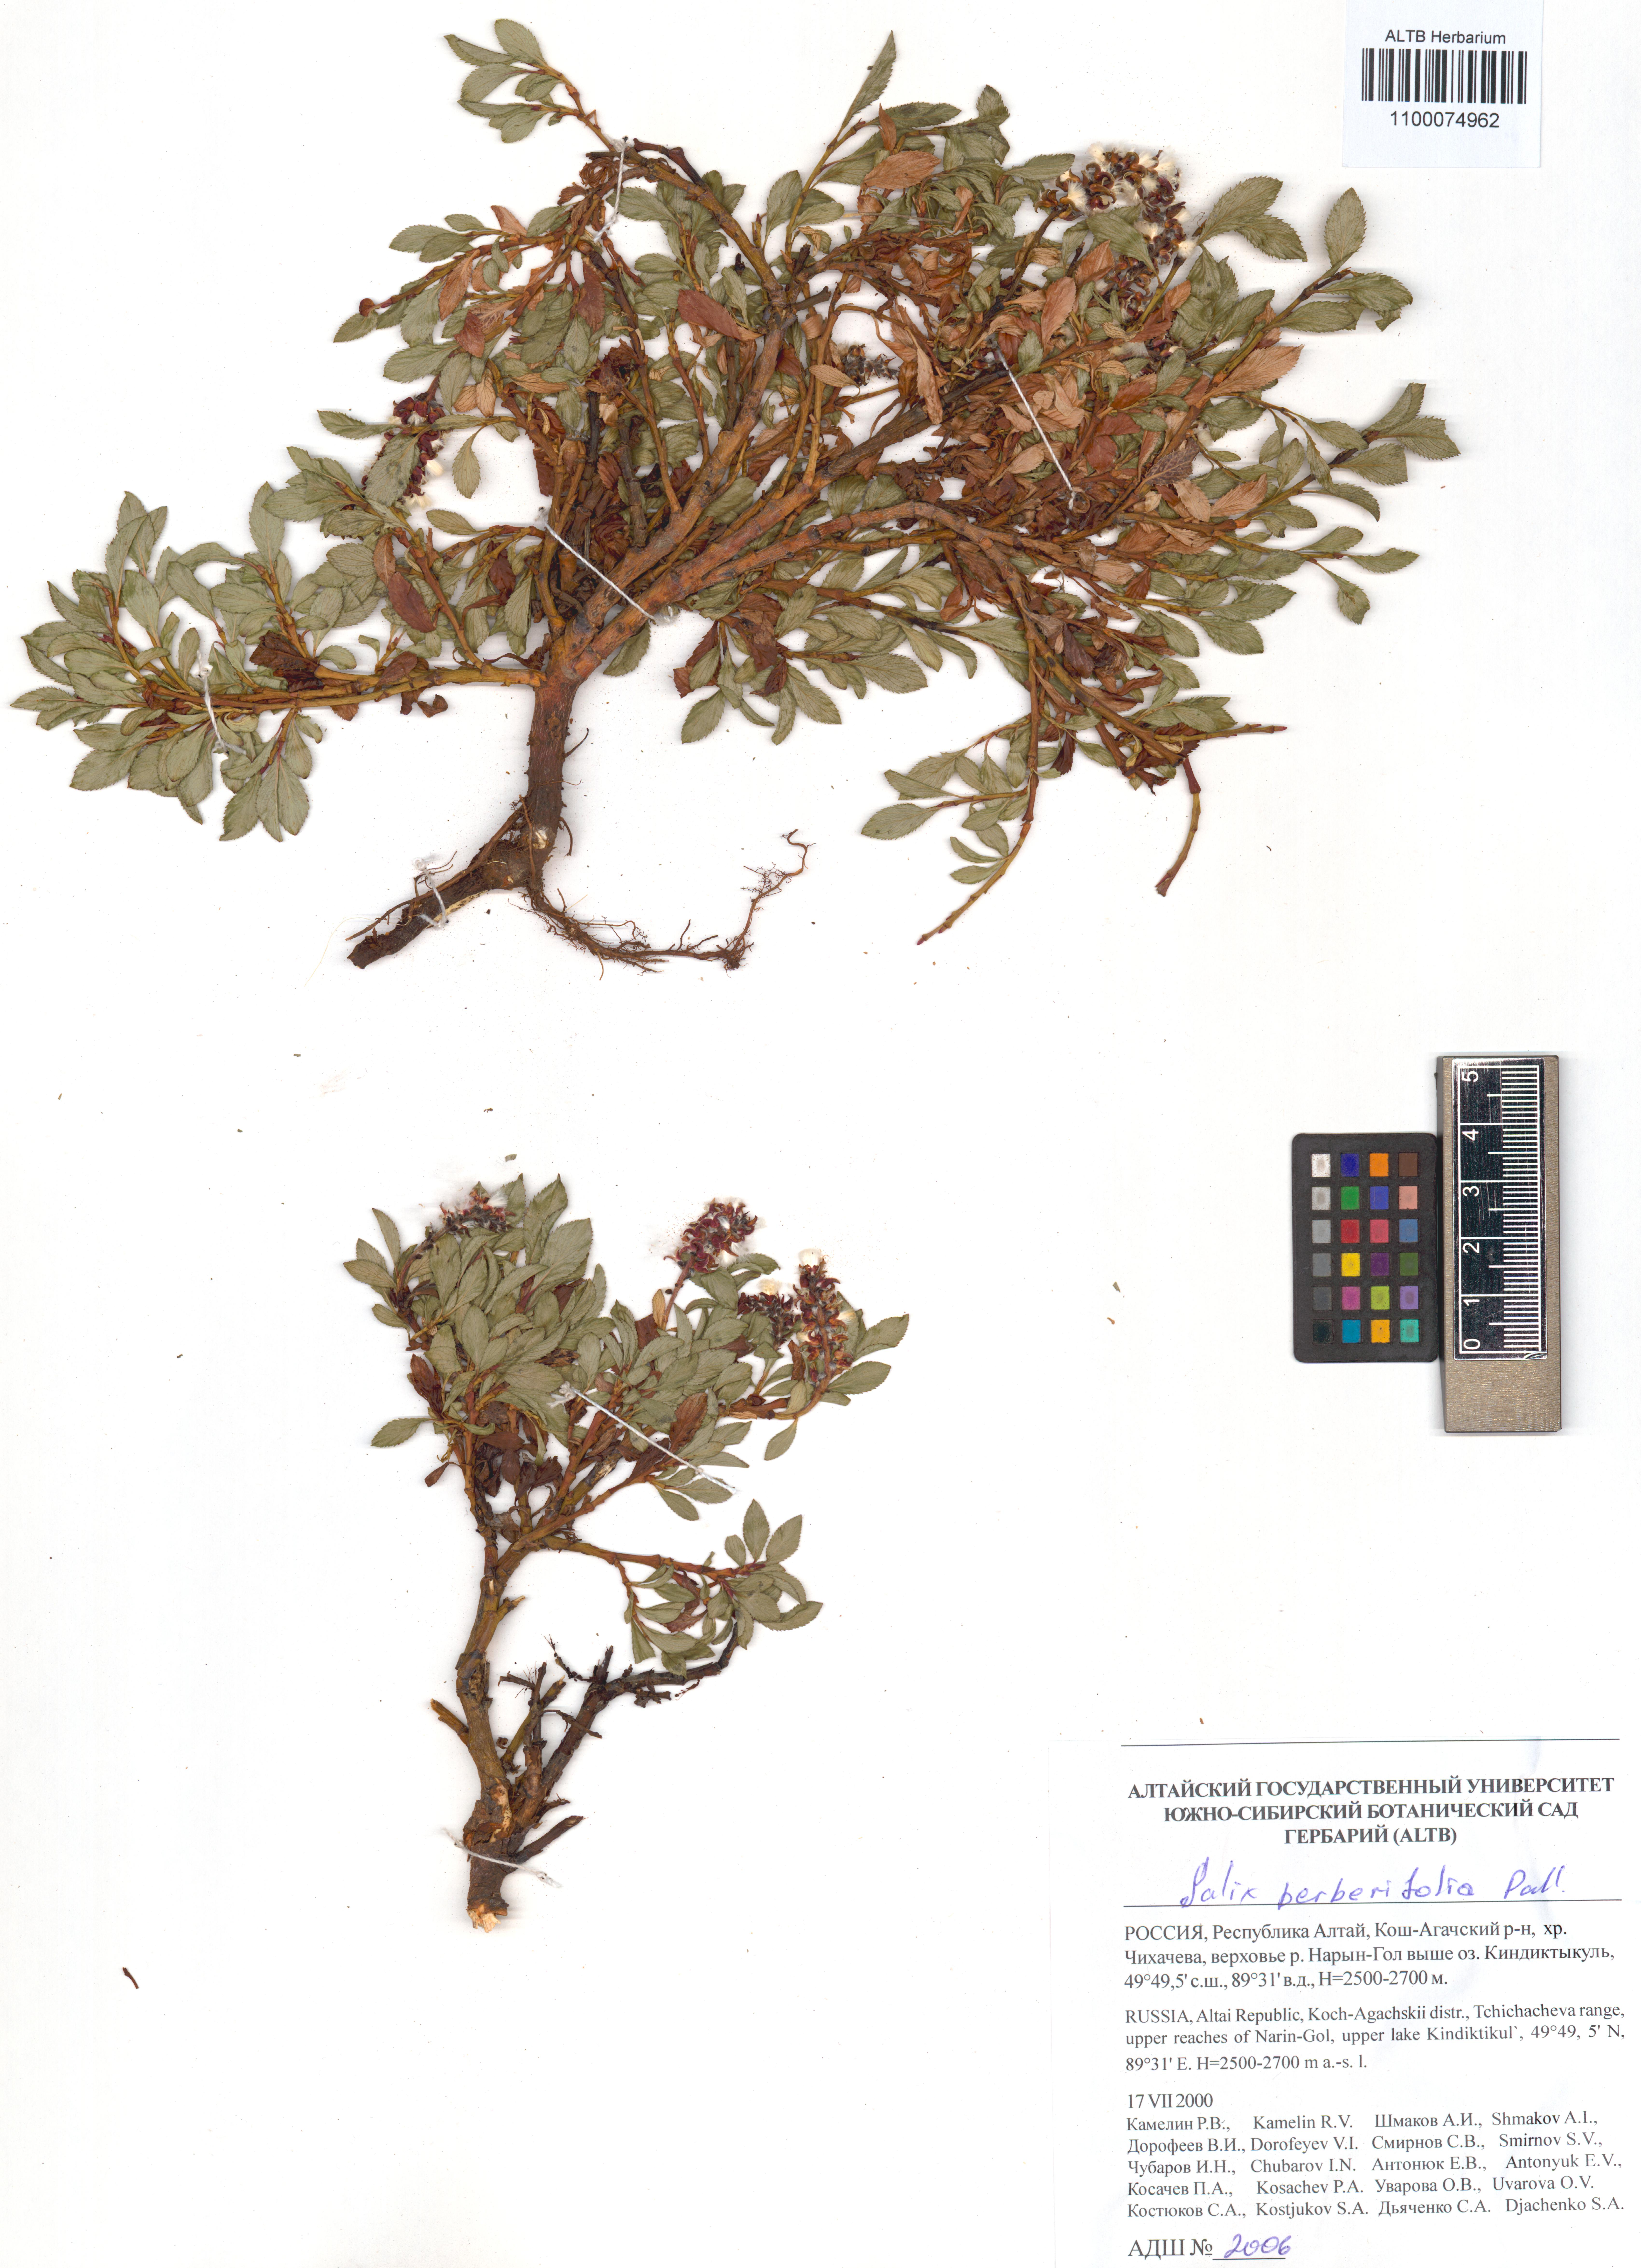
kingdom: Plantae
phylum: Tracheophyta
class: Magnoliopsida
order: Malpighiales
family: Salicaceae
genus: Salix
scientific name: Salix berberifolia
